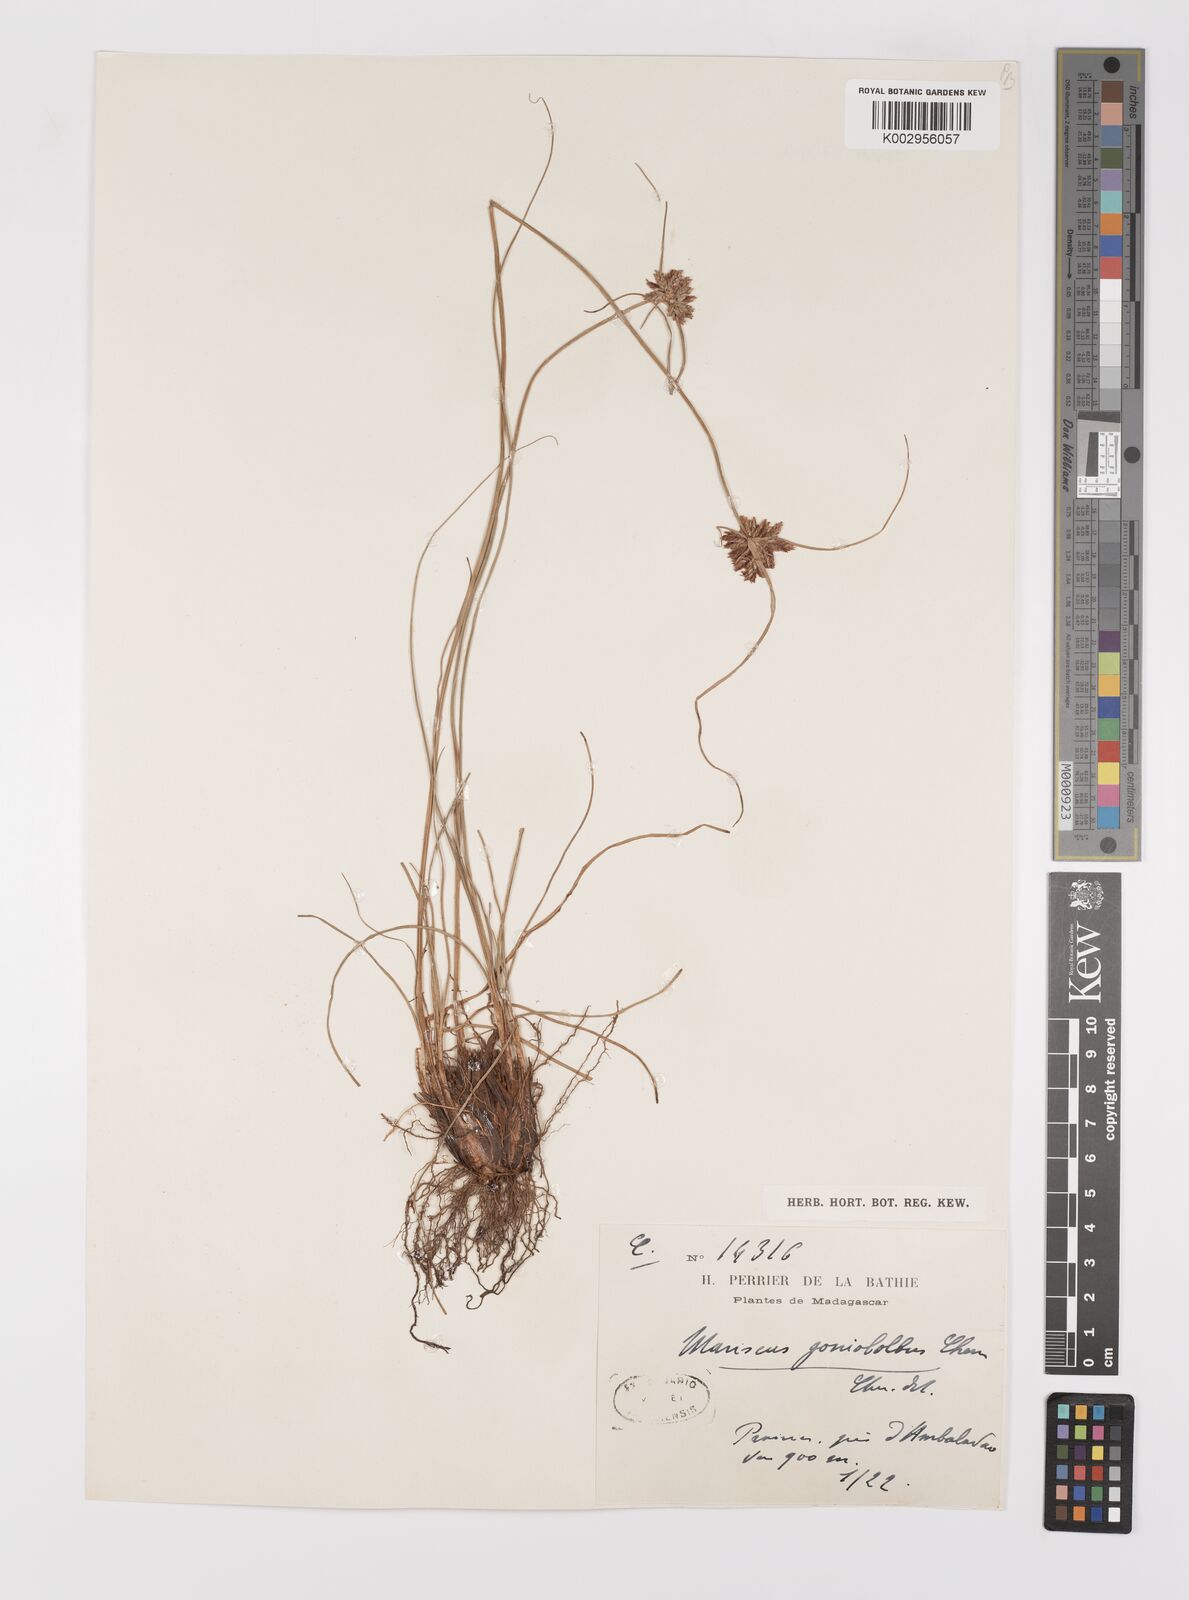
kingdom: Plantae
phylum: Tracheophyta
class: Liliopsida
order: Poales
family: Cyperaceae
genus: Cyperus
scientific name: Cyperus pseudovestitus
